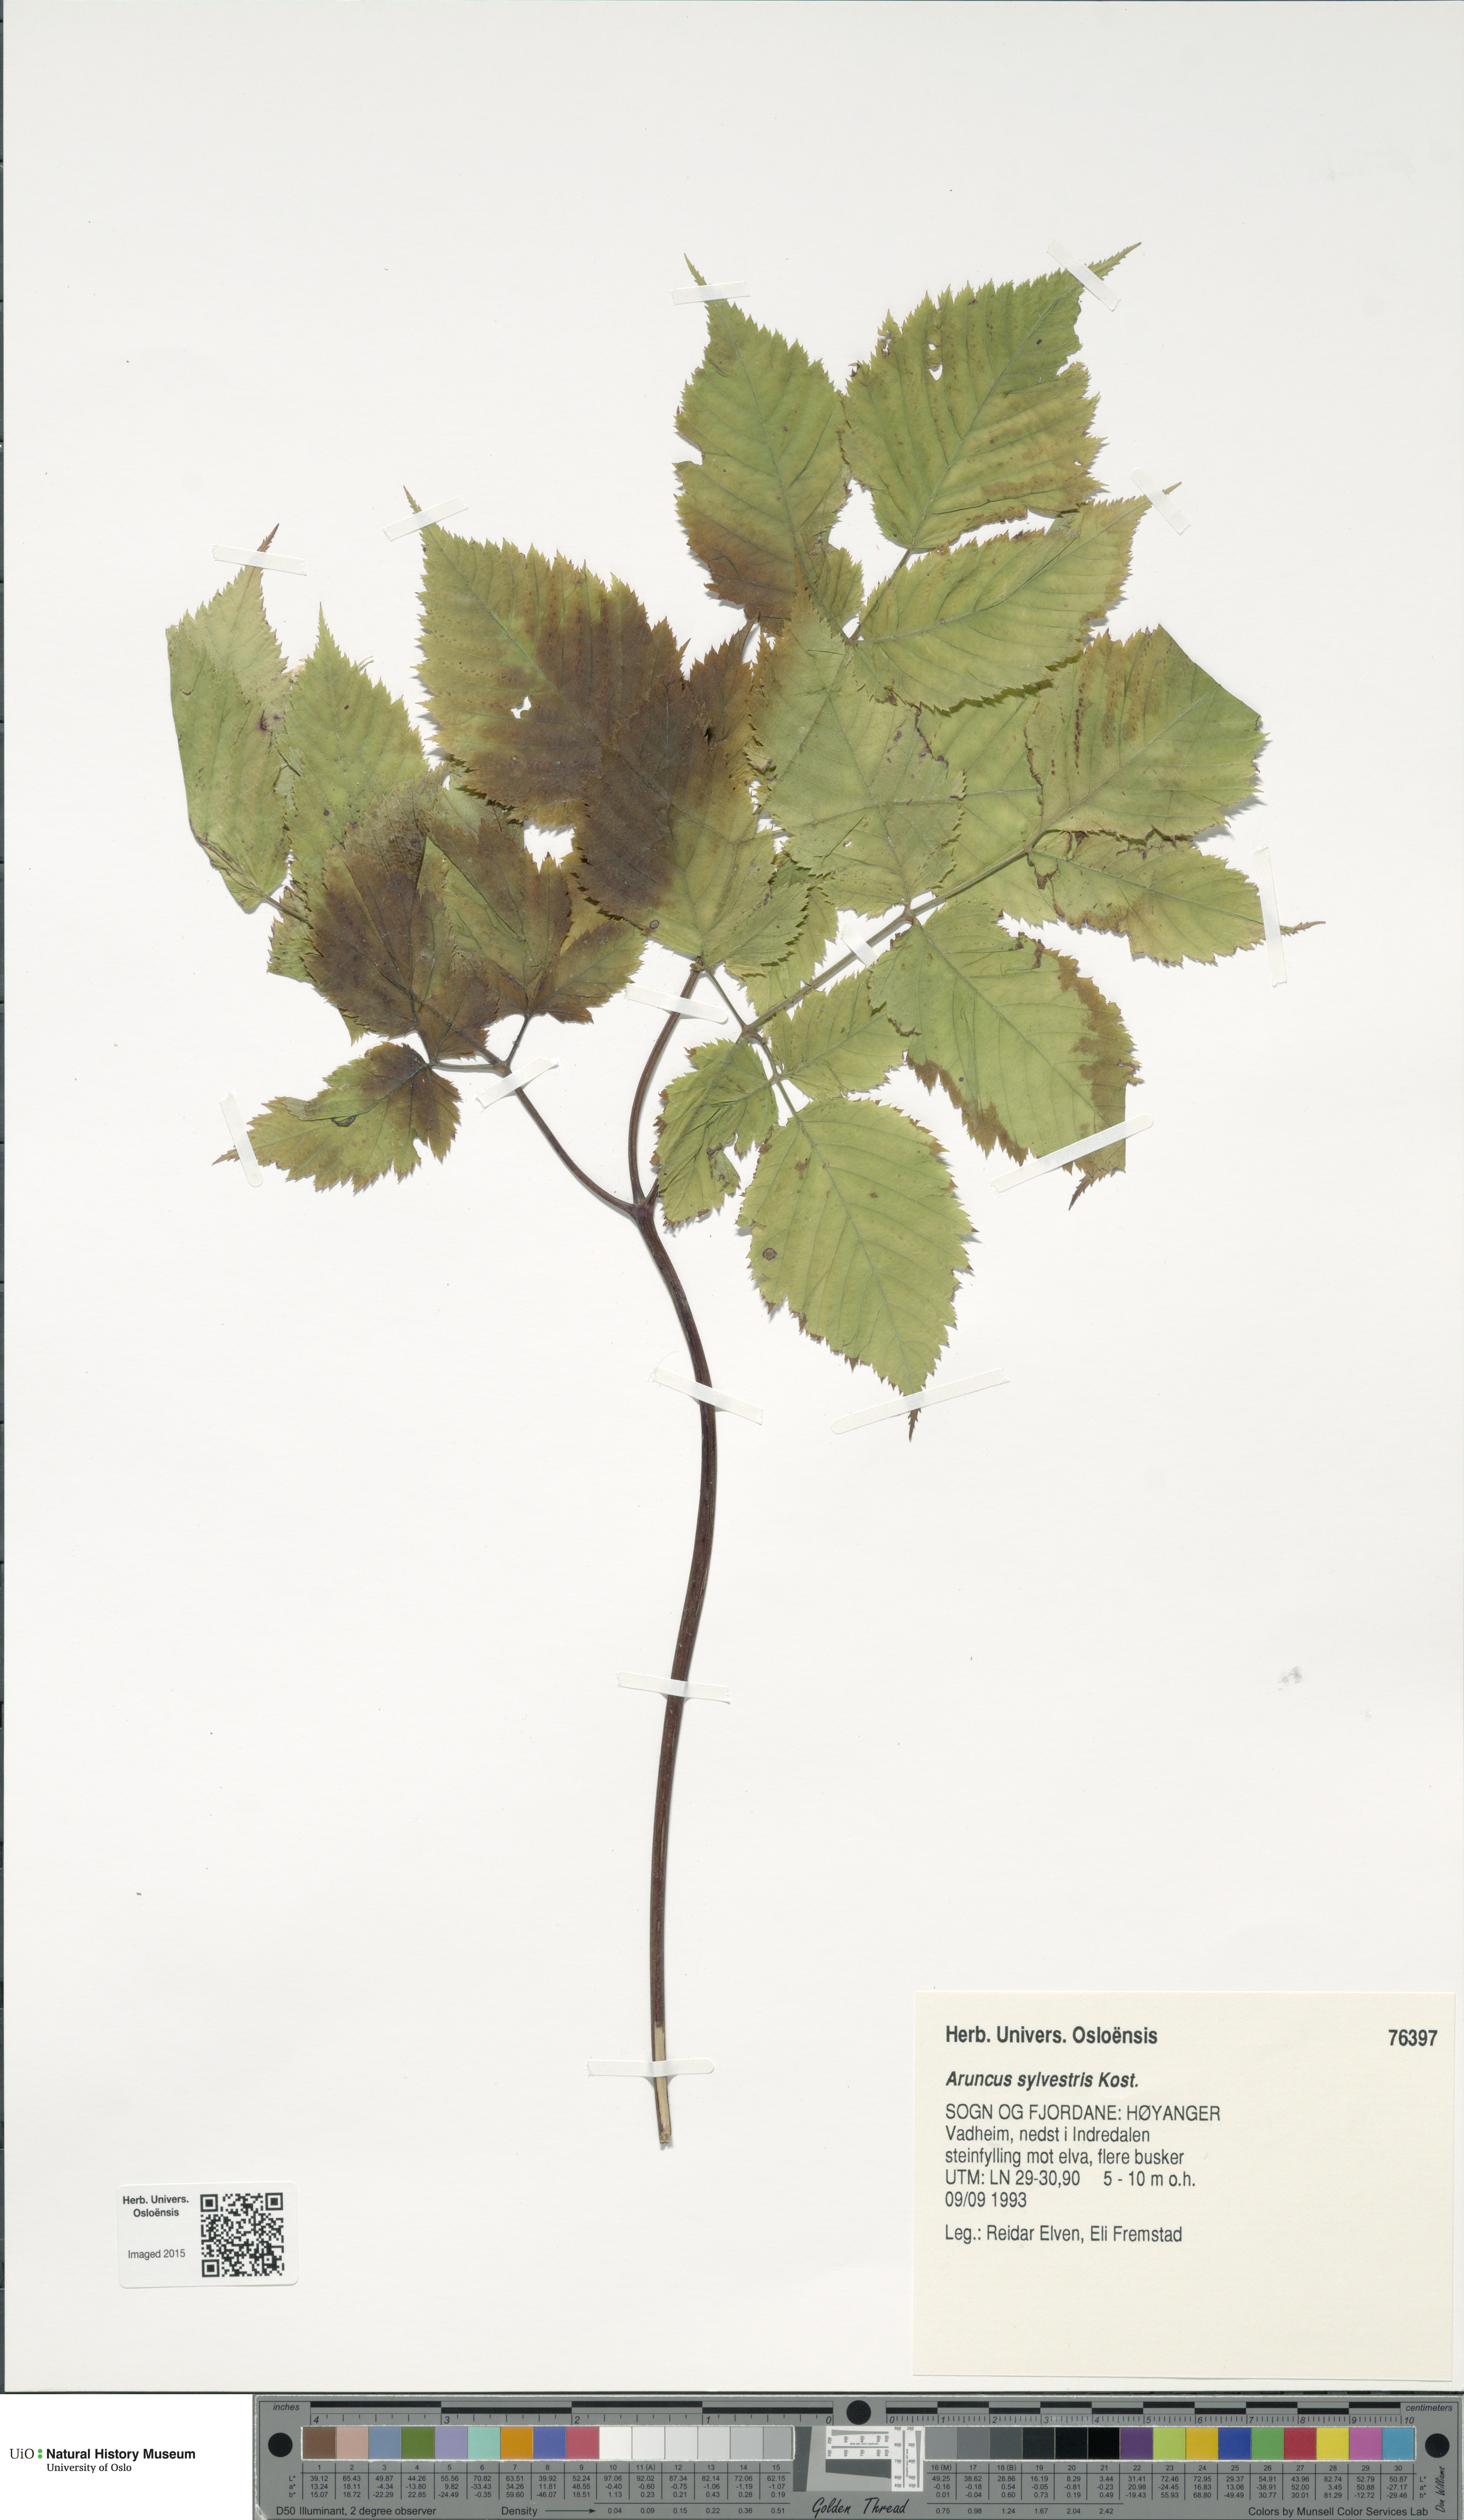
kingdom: Plantae
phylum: Tracheophyta
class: Magnoliopsida
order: Rosales
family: Rosaceae
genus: Aruncus
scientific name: Aruncus dioicus
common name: Buck's-beard
